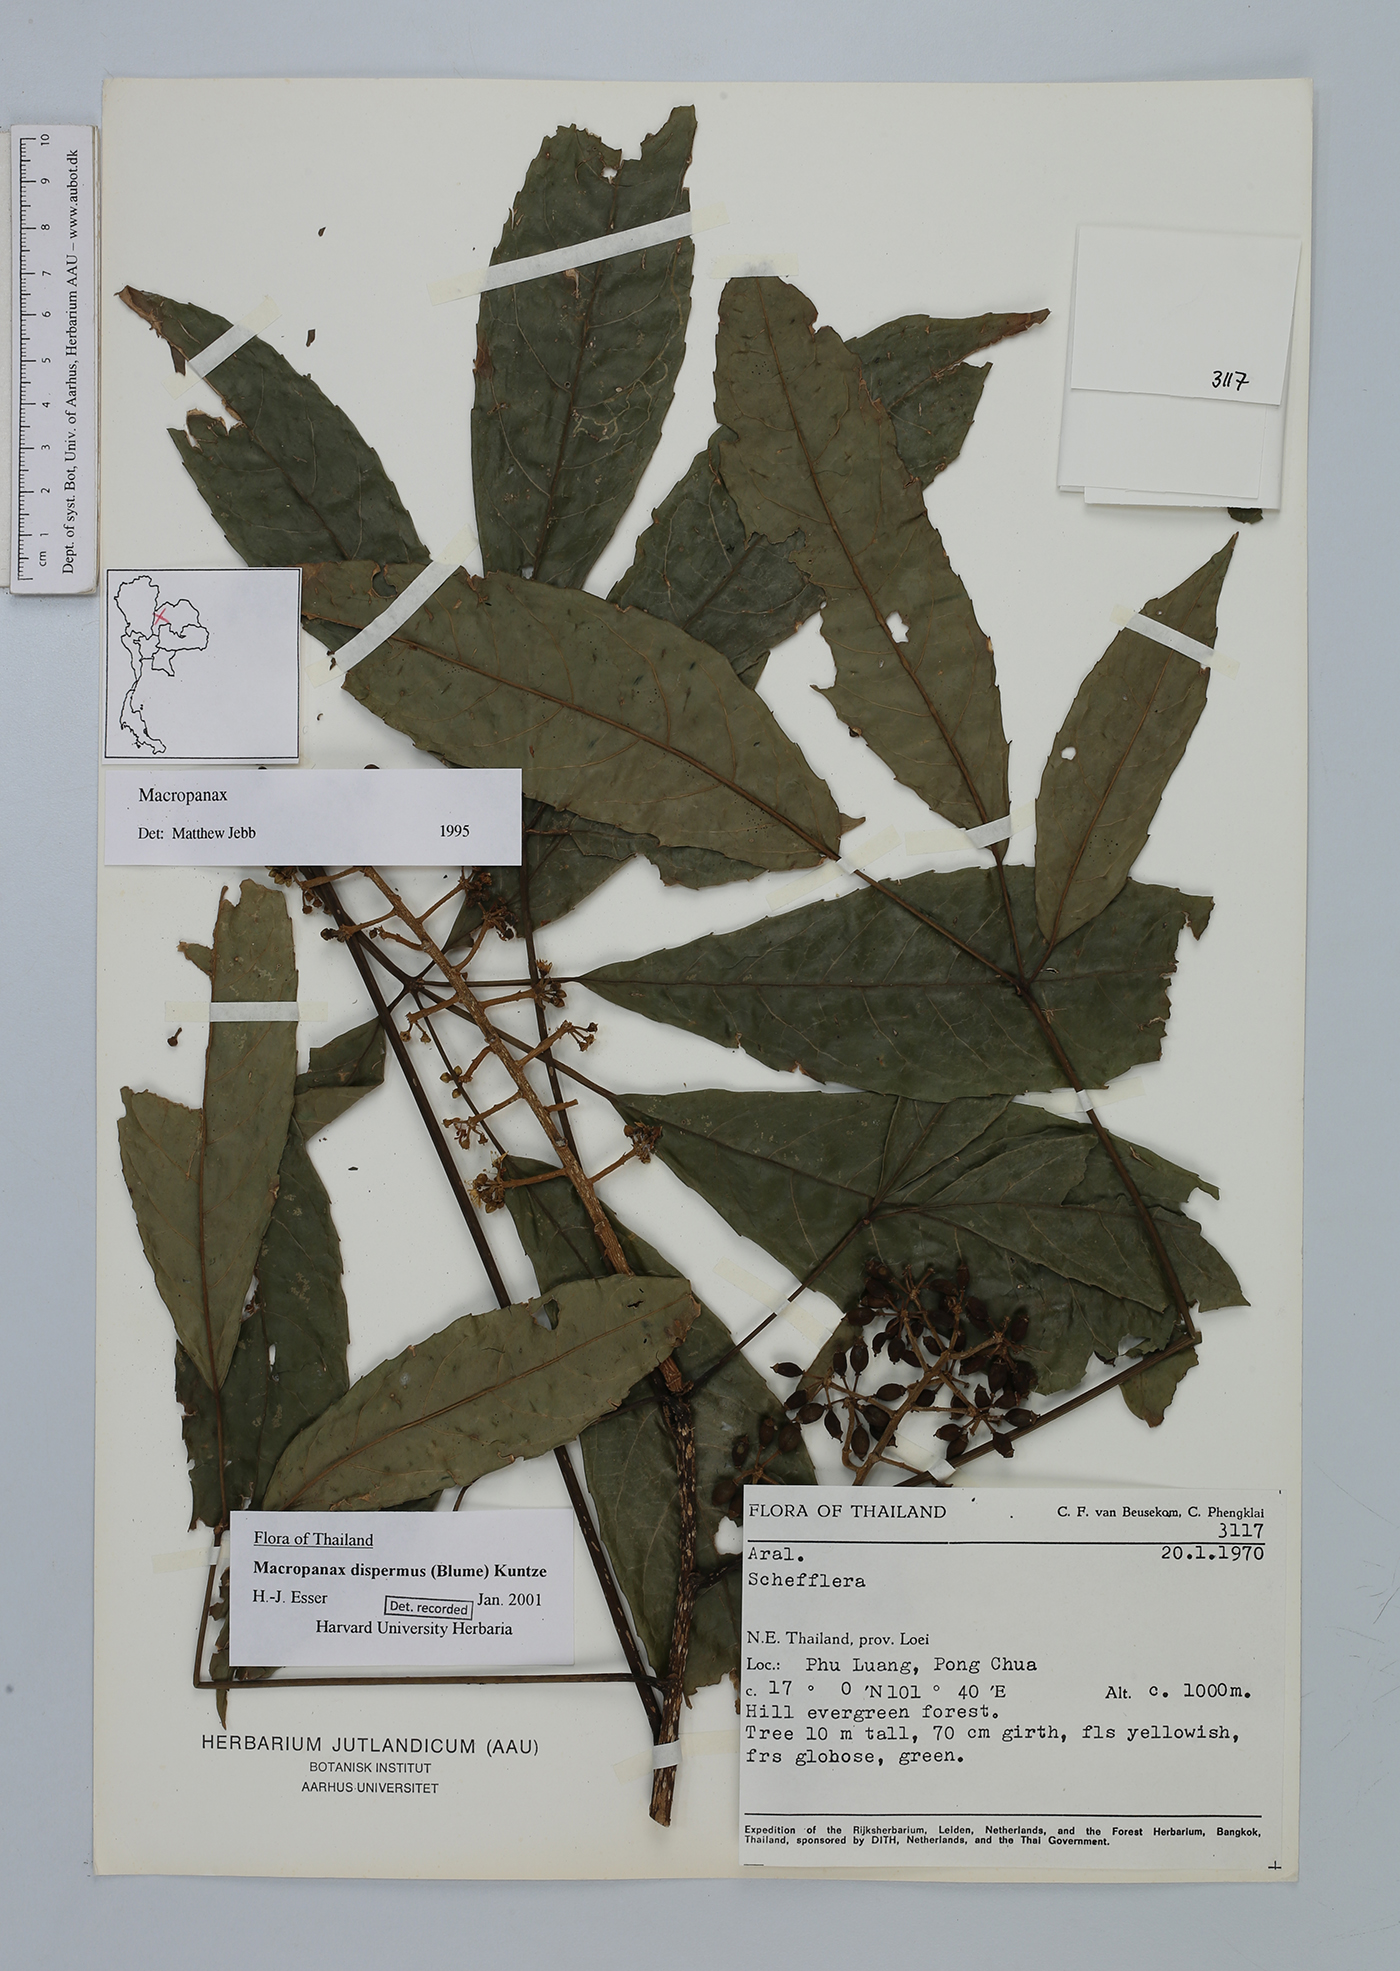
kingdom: Plantae
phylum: Tracheophyta
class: Magnoliopsida
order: Apiales
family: Araliaceae
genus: Macropanax
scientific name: Macropanax dispermus
